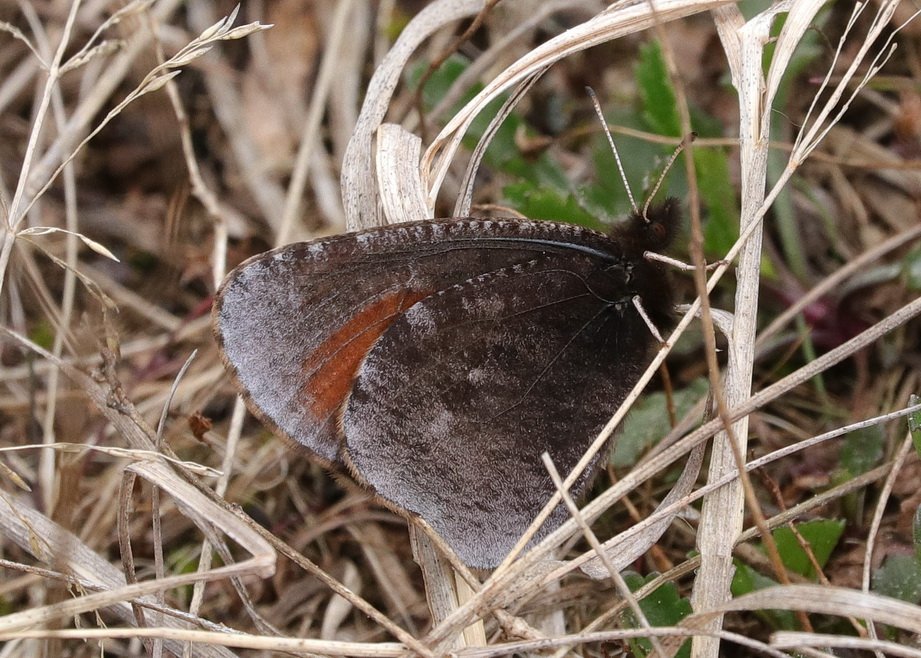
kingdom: Animalia
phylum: Arthropoda
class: Insecta
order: Lepidoptera
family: Nymphalidae
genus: Erebia
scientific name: Erebia discoidalis
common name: Red-disked Alpine
